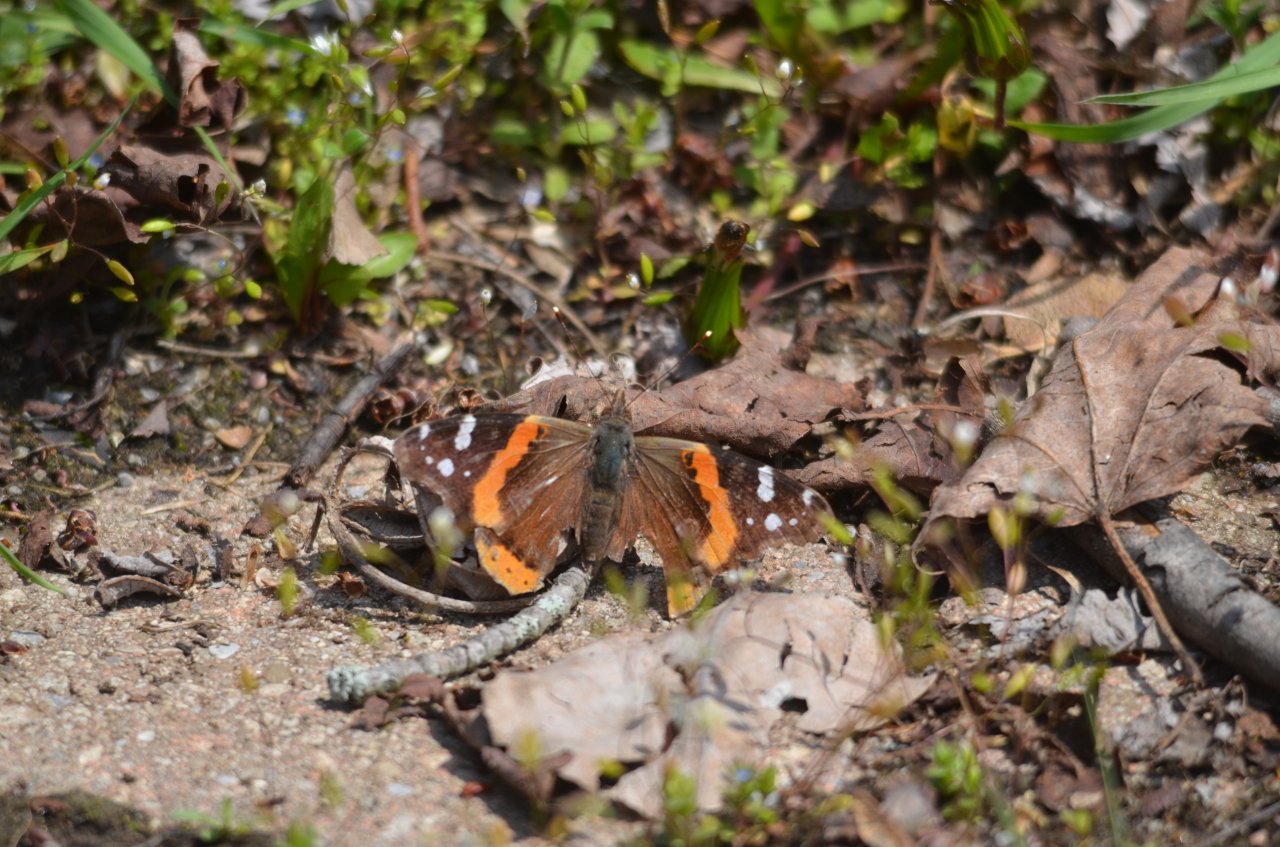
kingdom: Animalia
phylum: Arthropoda
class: Insecta
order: Lepidoptera
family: Nymphalidae
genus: Vanessa
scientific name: Vanessa atalanta
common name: Red Admiral
